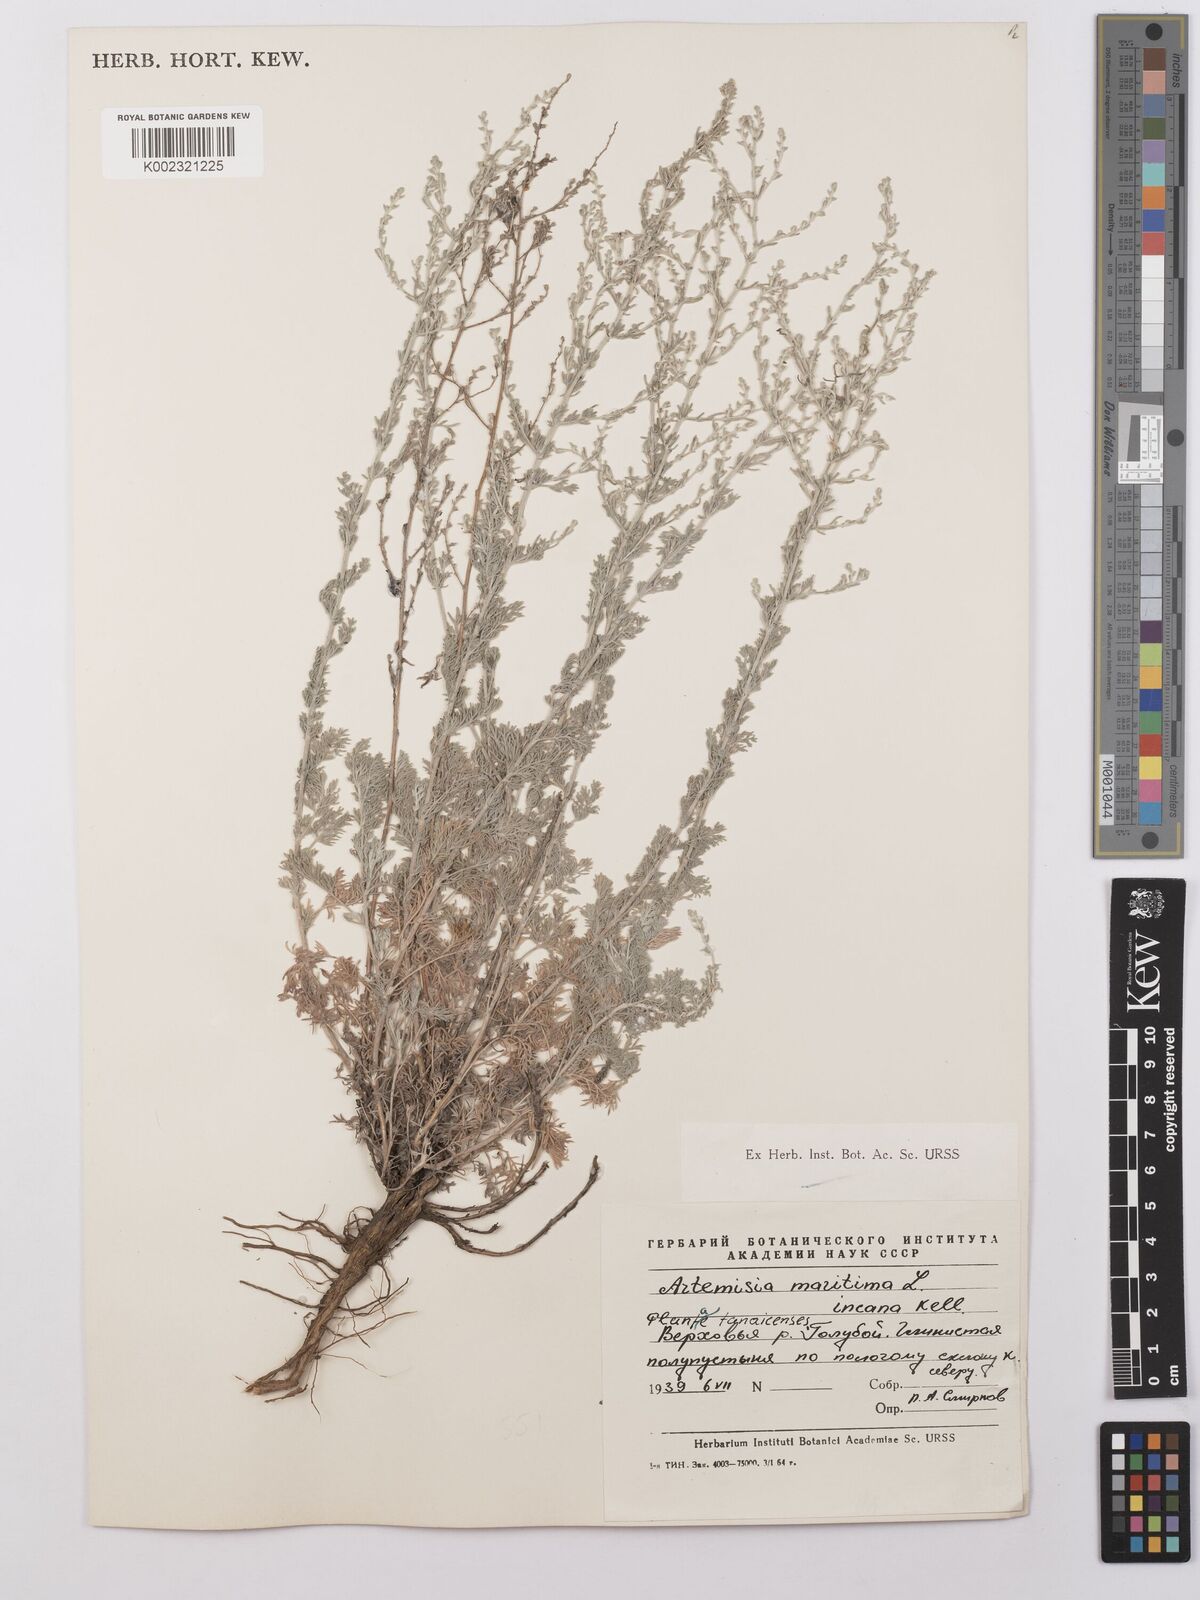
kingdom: Plantae
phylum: Tracheophyta
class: Magnoliopsida
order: Asterales
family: Asteraceae
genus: Artemisia
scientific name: Artemisia maritima
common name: Wormseed
